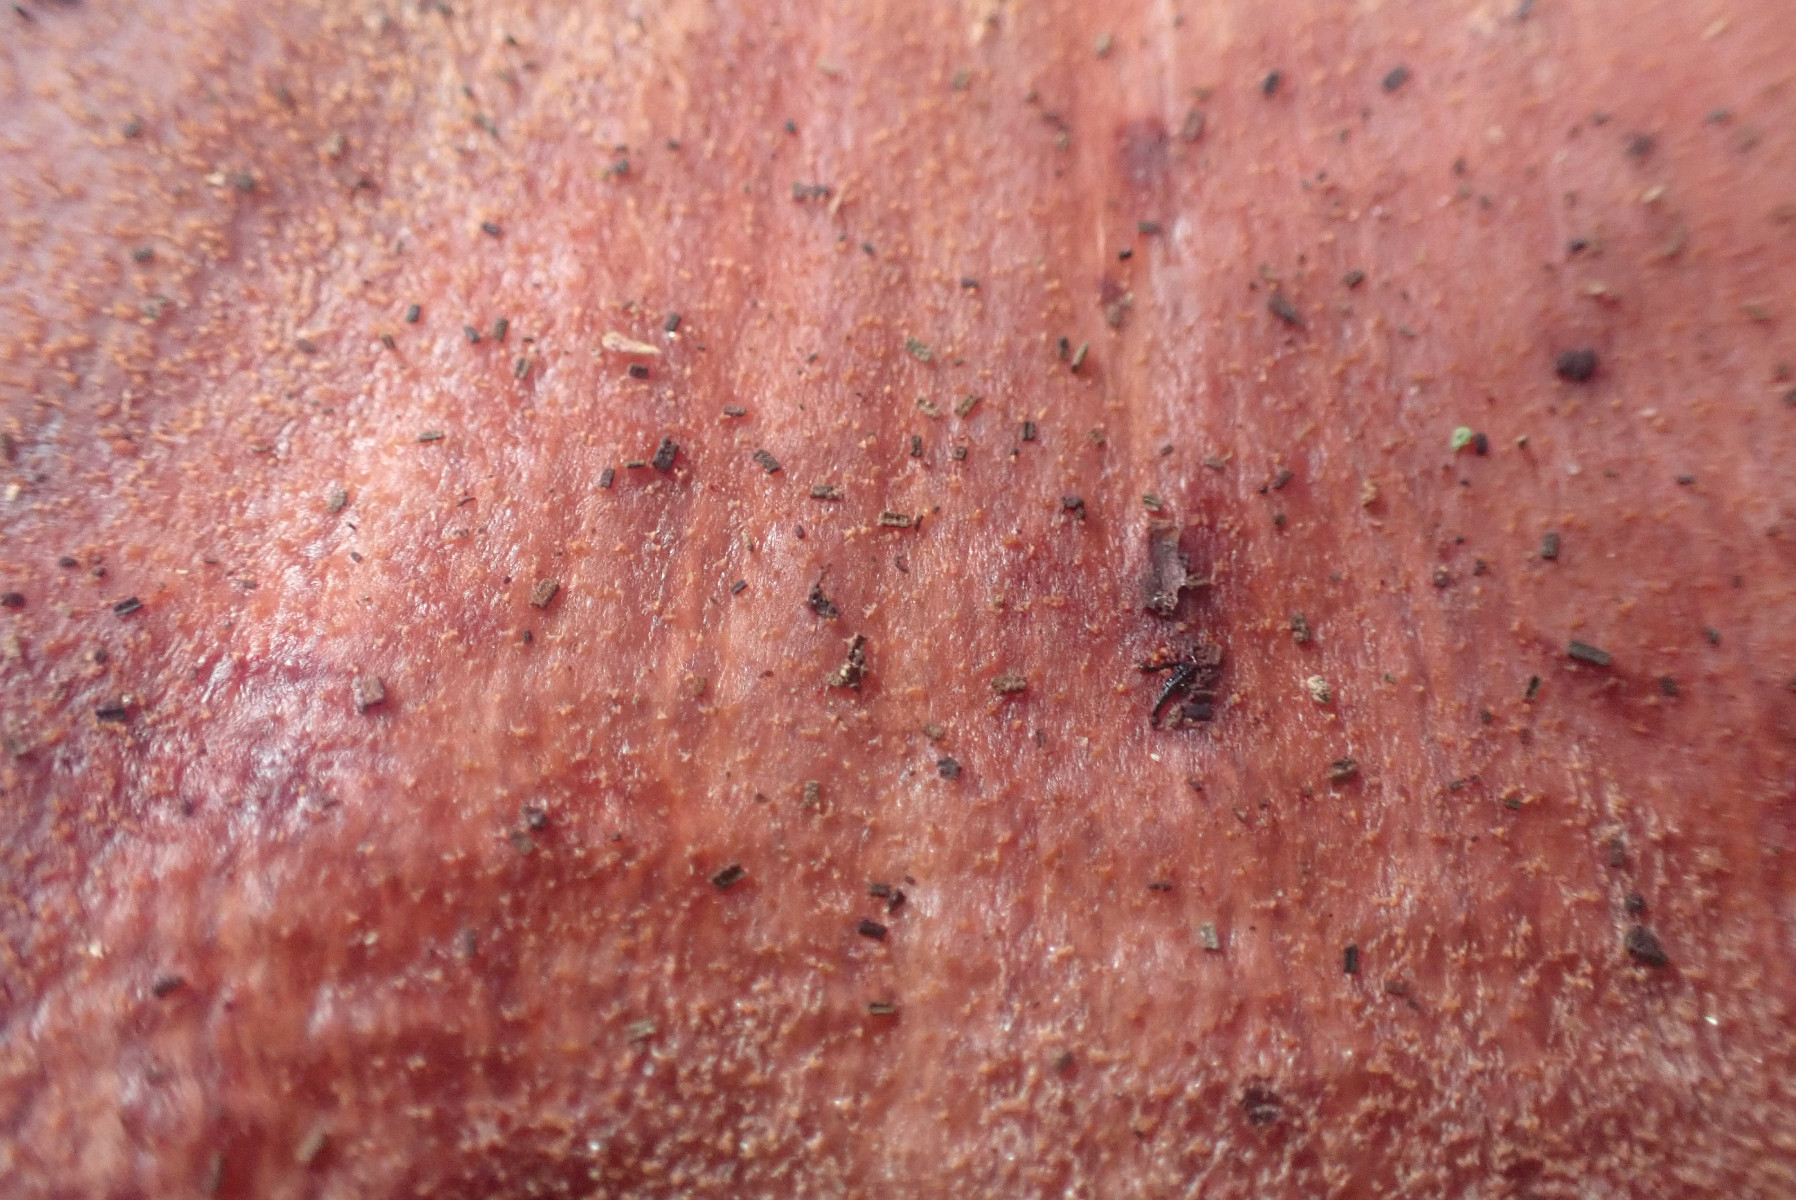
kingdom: Fungi
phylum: Basidiomycota
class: Agaricomycetes
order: Agaricales
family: Fistulinaceae
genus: Fistulina
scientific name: Fistulina hepatica
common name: oksetunge
